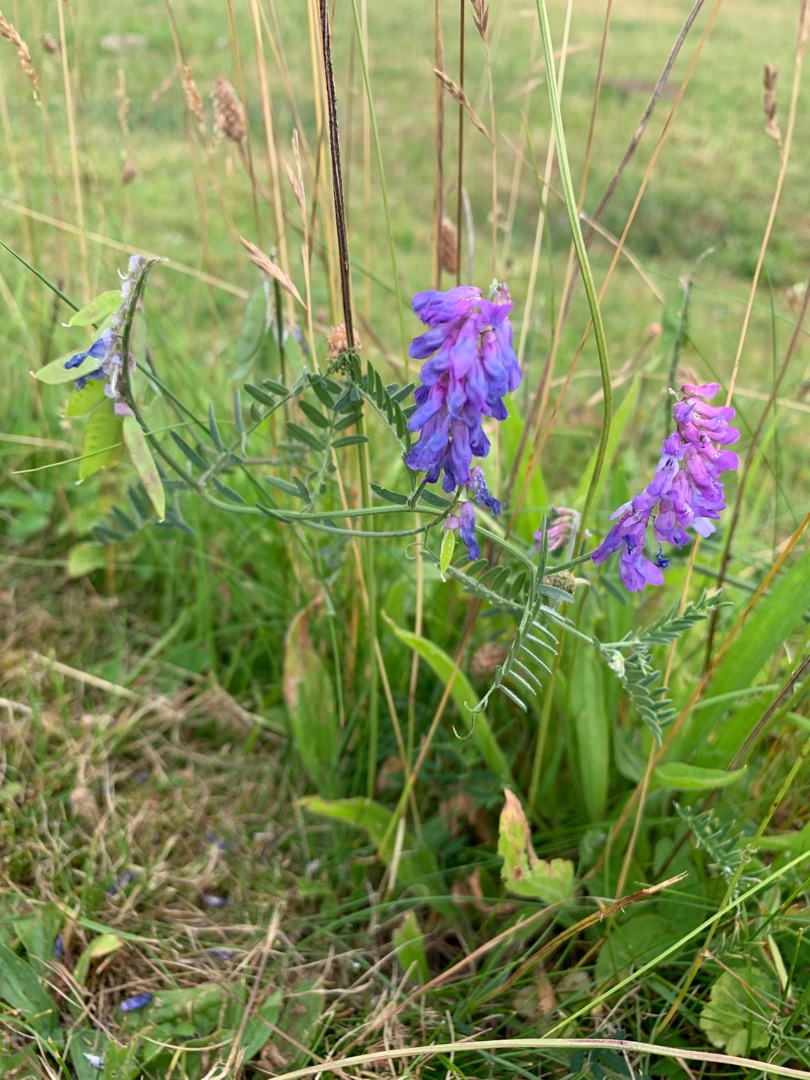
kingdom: Plantae
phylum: Tracheophyta
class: Magnoliopsida
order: Fabales
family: Fabaceae
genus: Vicia
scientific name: Vicia cracca
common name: Muse-vikke
